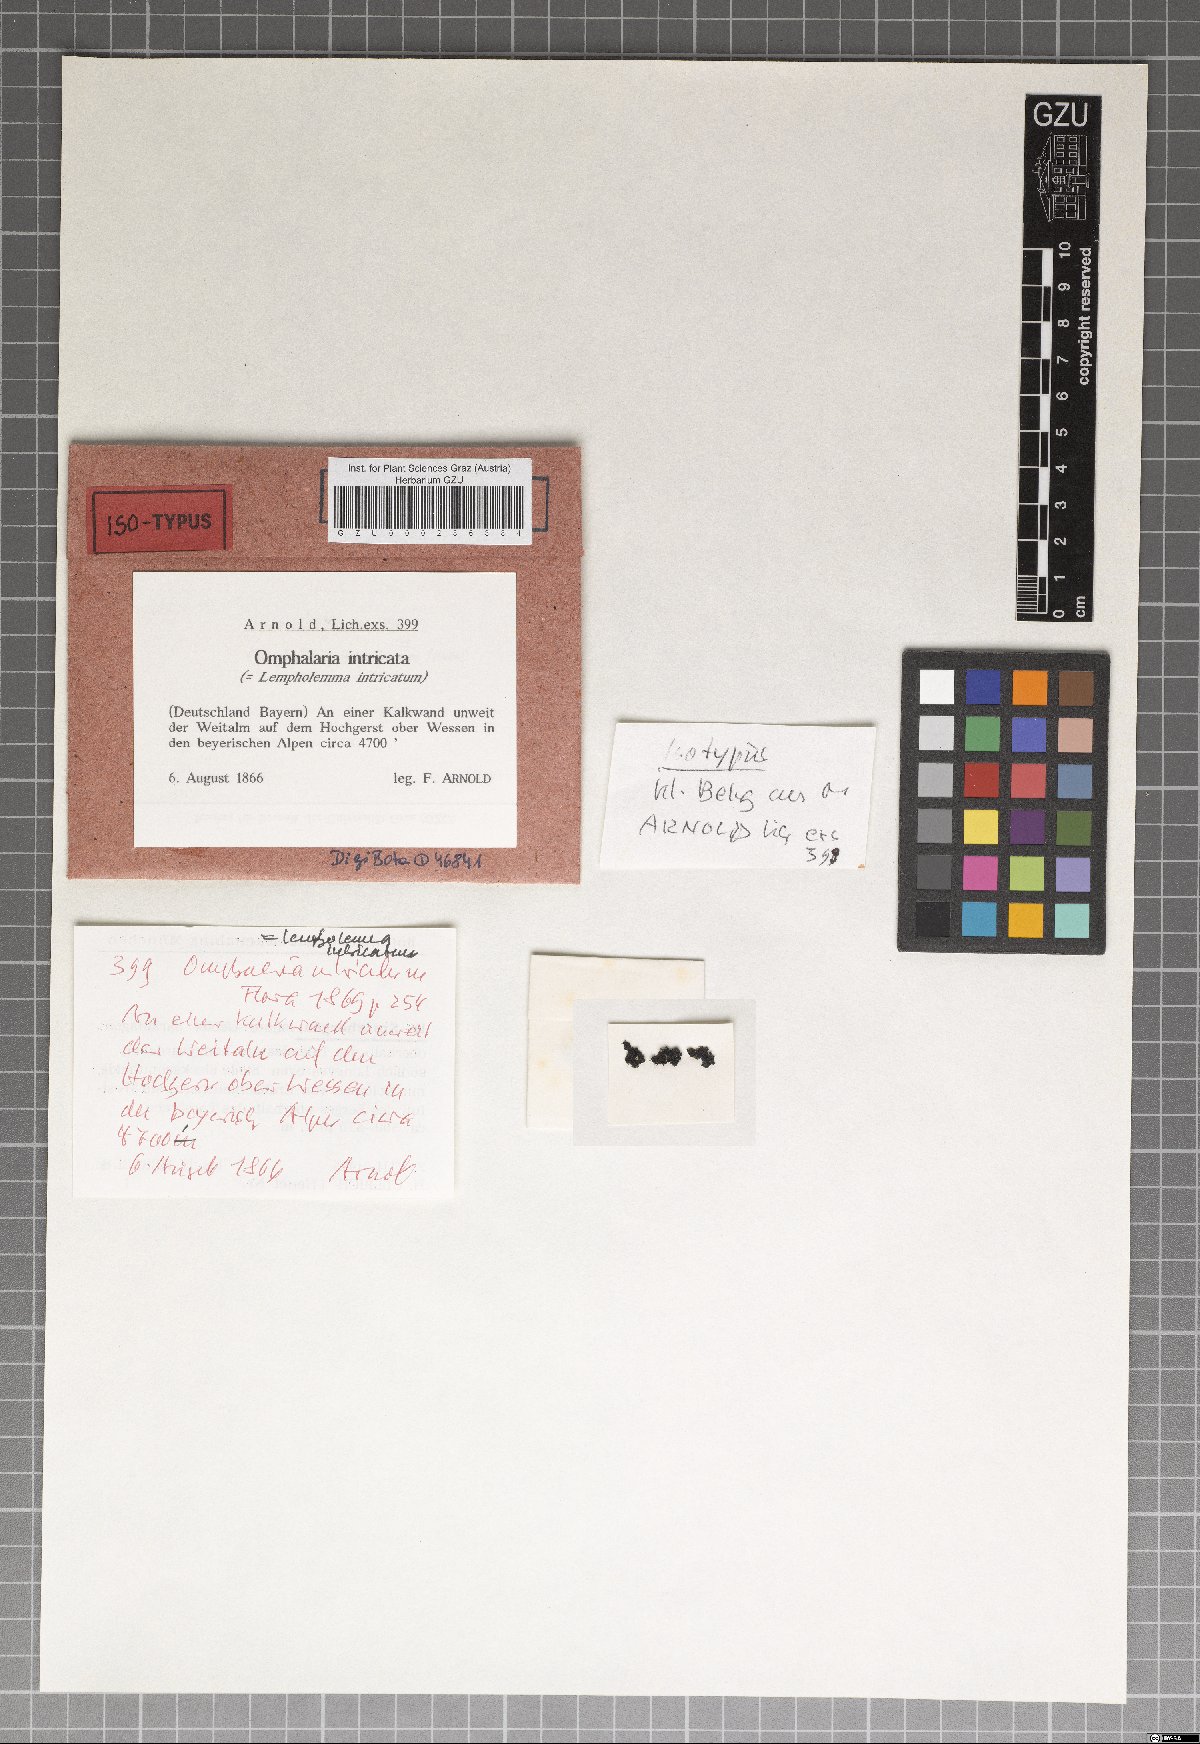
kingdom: Fungi
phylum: Ascomycota
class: Lichinomycetes
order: Lichinales
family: Lichinaceae
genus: Lempholemma
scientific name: Lempholemma intricatum
